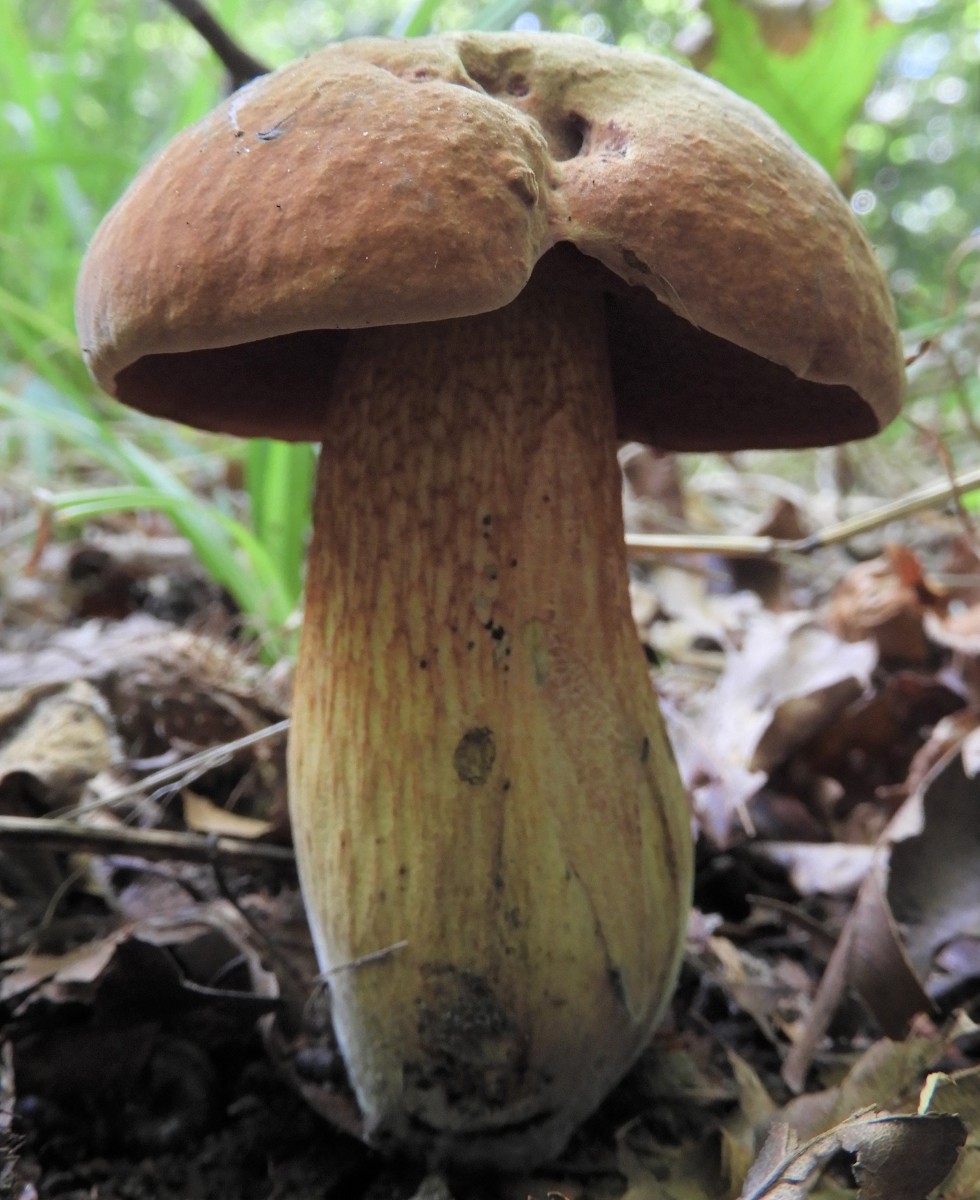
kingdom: Fungi
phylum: Basidiomycota
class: Agaricomycetes
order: Boletales
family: Boletaceae
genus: Suillellus
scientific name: Suillellus luridus
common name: netstokket indigorørhat
